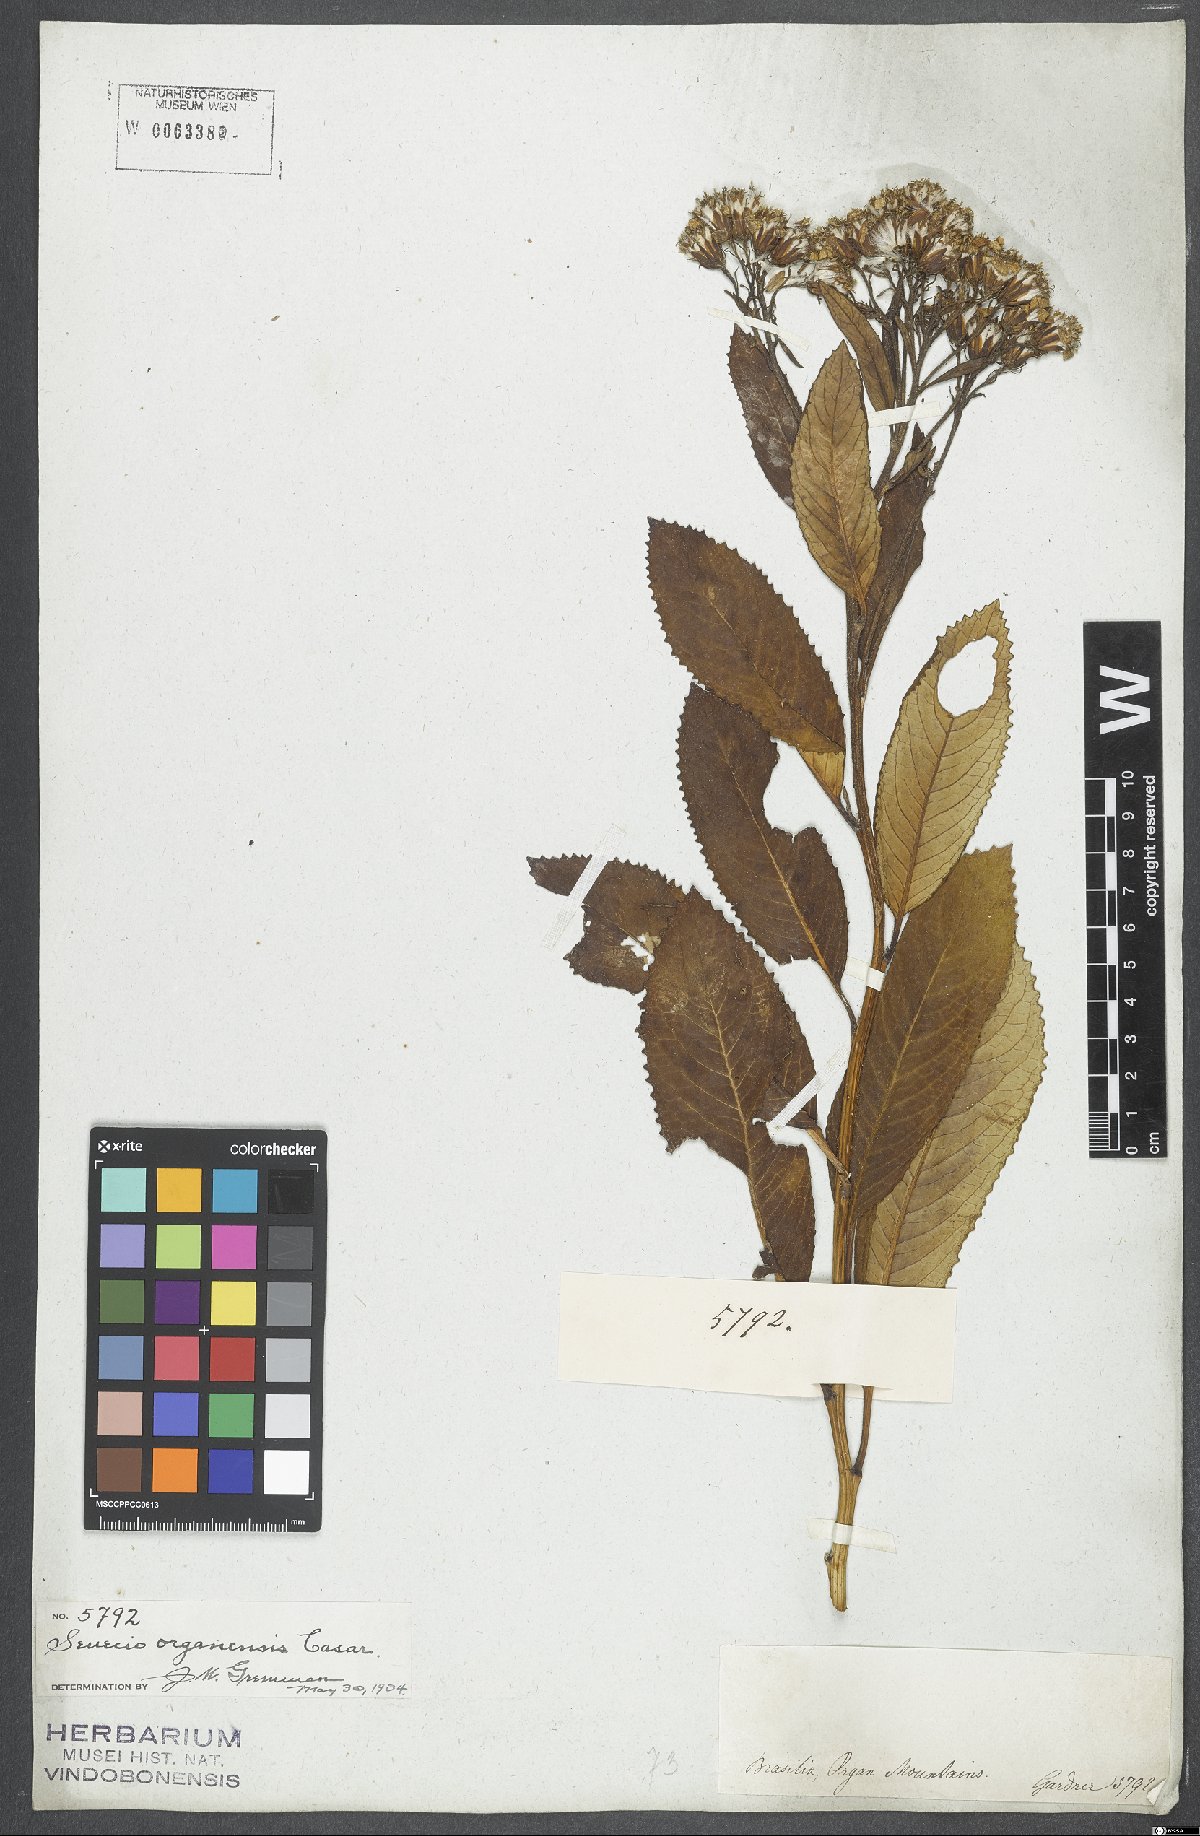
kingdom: Plantae
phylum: Tracheophyta
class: Magnoliopsida
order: Asterales
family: Asteraceae
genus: Graphistylis
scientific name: Graphistylis organensis
